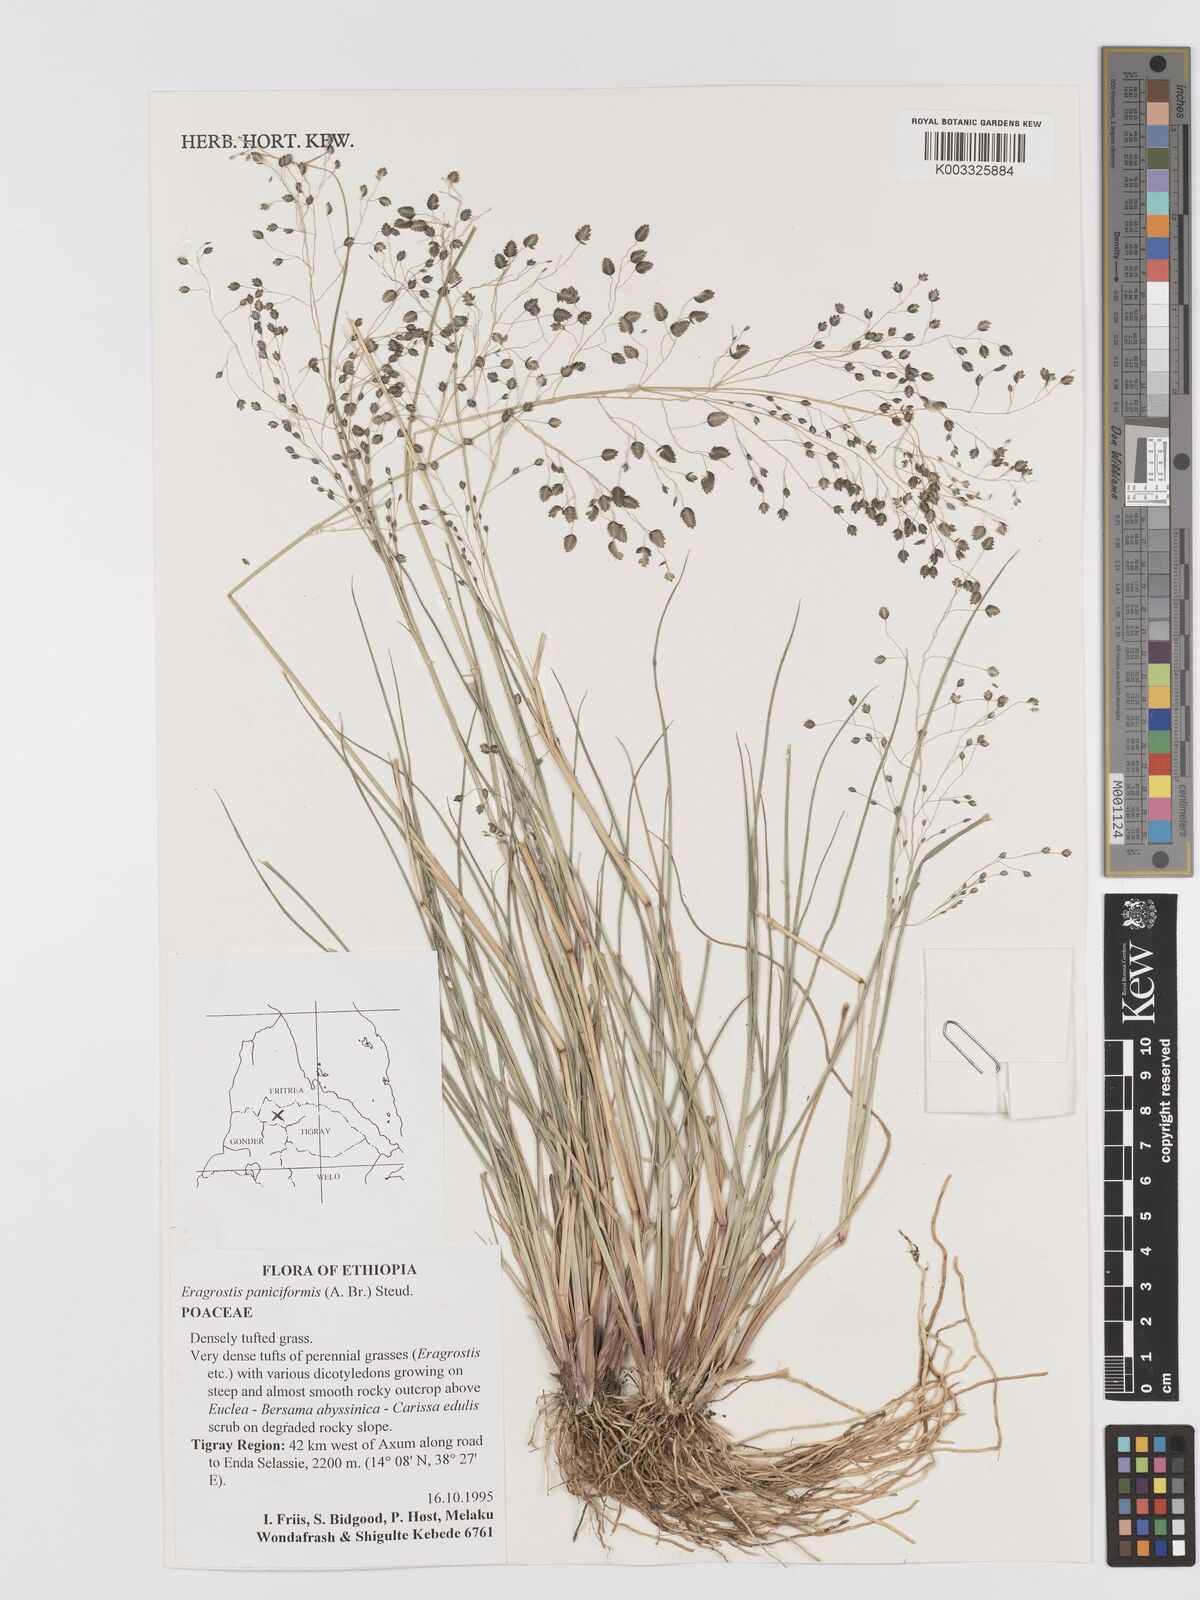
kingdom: Plantae
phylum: Tracheophyta
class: Liliopsida
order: Poales
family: Poaceae
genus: Eragrostis
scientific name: Eragrostis paniciformis
